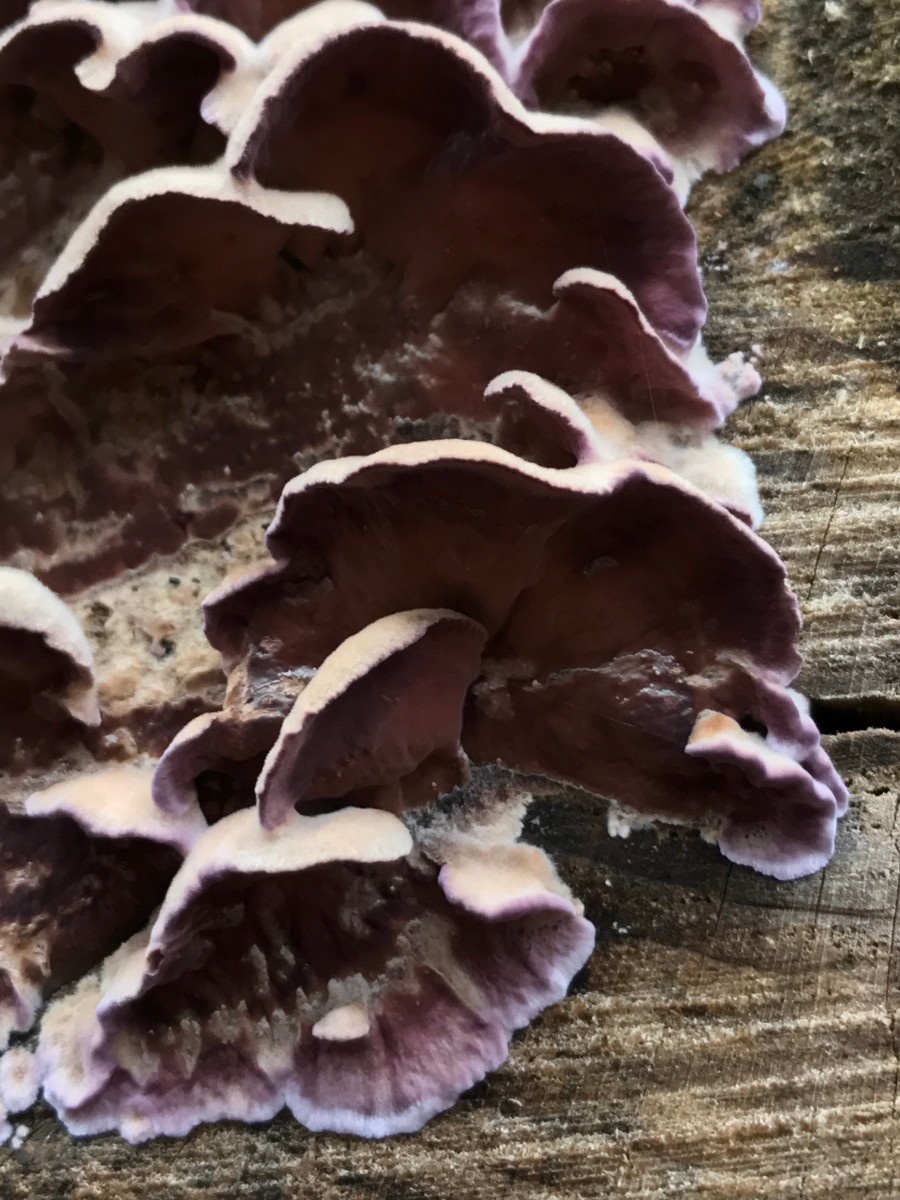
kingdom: Fungi
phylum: Basidiomycota
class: Agaricomycetes
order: Agaricales
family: Cyphellaceae
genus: Chondrostereum
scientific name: Chondrostereum purpureum
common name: purpurlædersvamp
